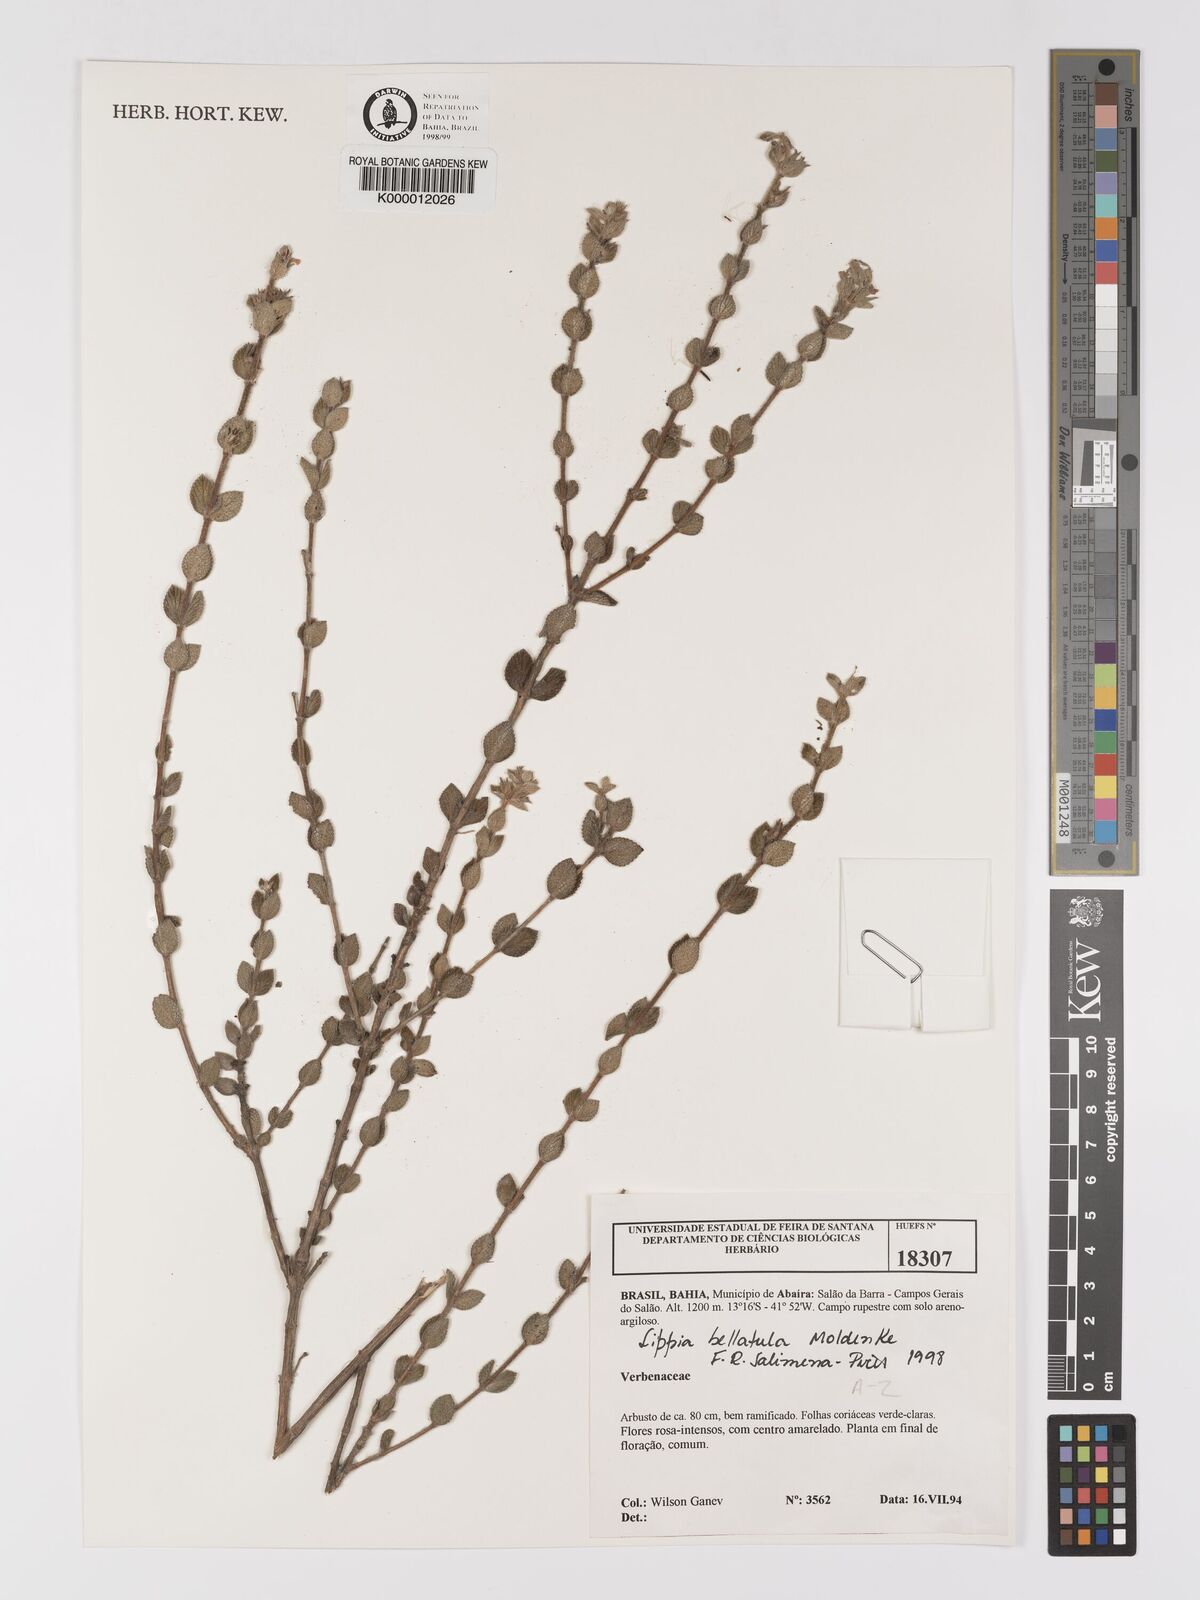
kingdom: Plantae
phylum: Tracheophyta
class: Magnoliopsida
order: Lamiales
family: Verbenaceae
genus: Lippia
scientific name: Lippia bellatula
